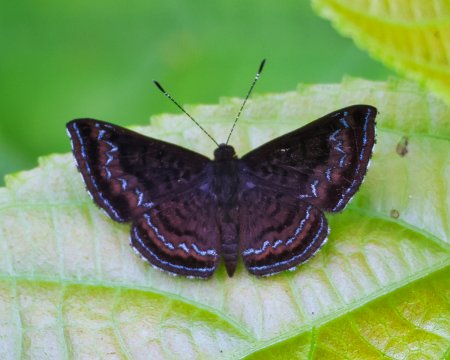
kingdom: Animalia
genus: Calephelis
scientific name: Calephelis
